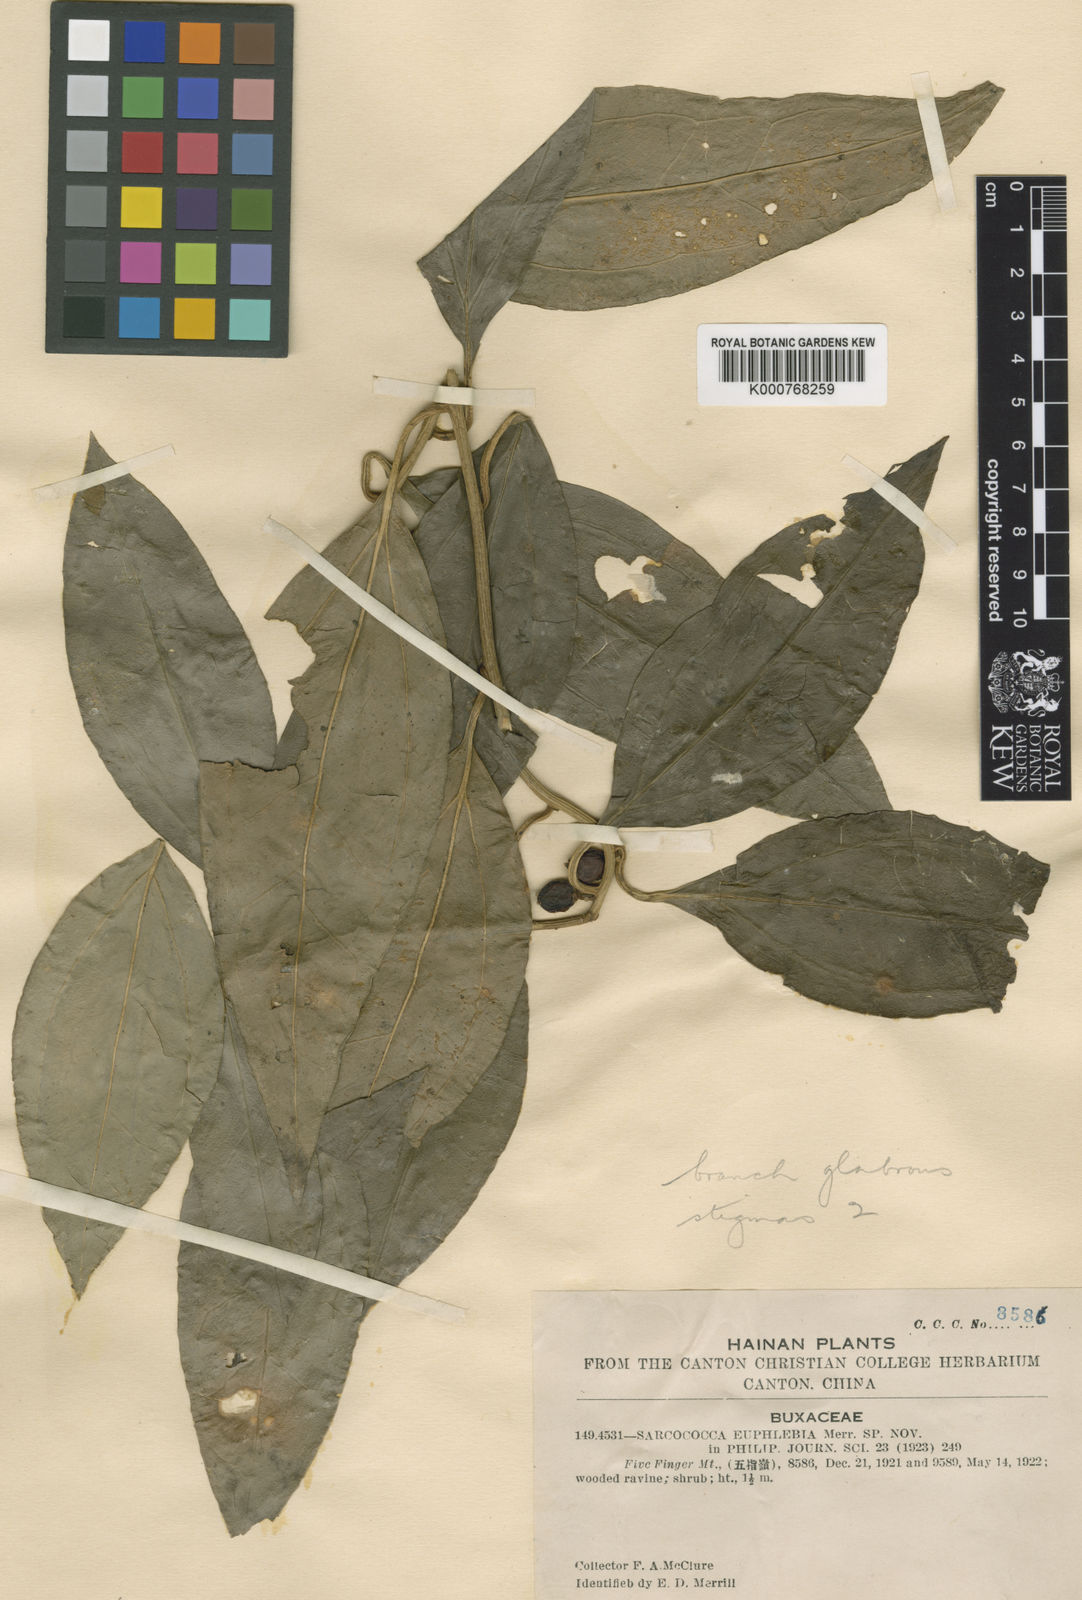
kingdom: Plantae
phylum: Tracheophyta
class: Magnoliopsida
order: Buxales
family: Buxaceae
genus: Sarcococca
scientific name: Sarcococca balansae
